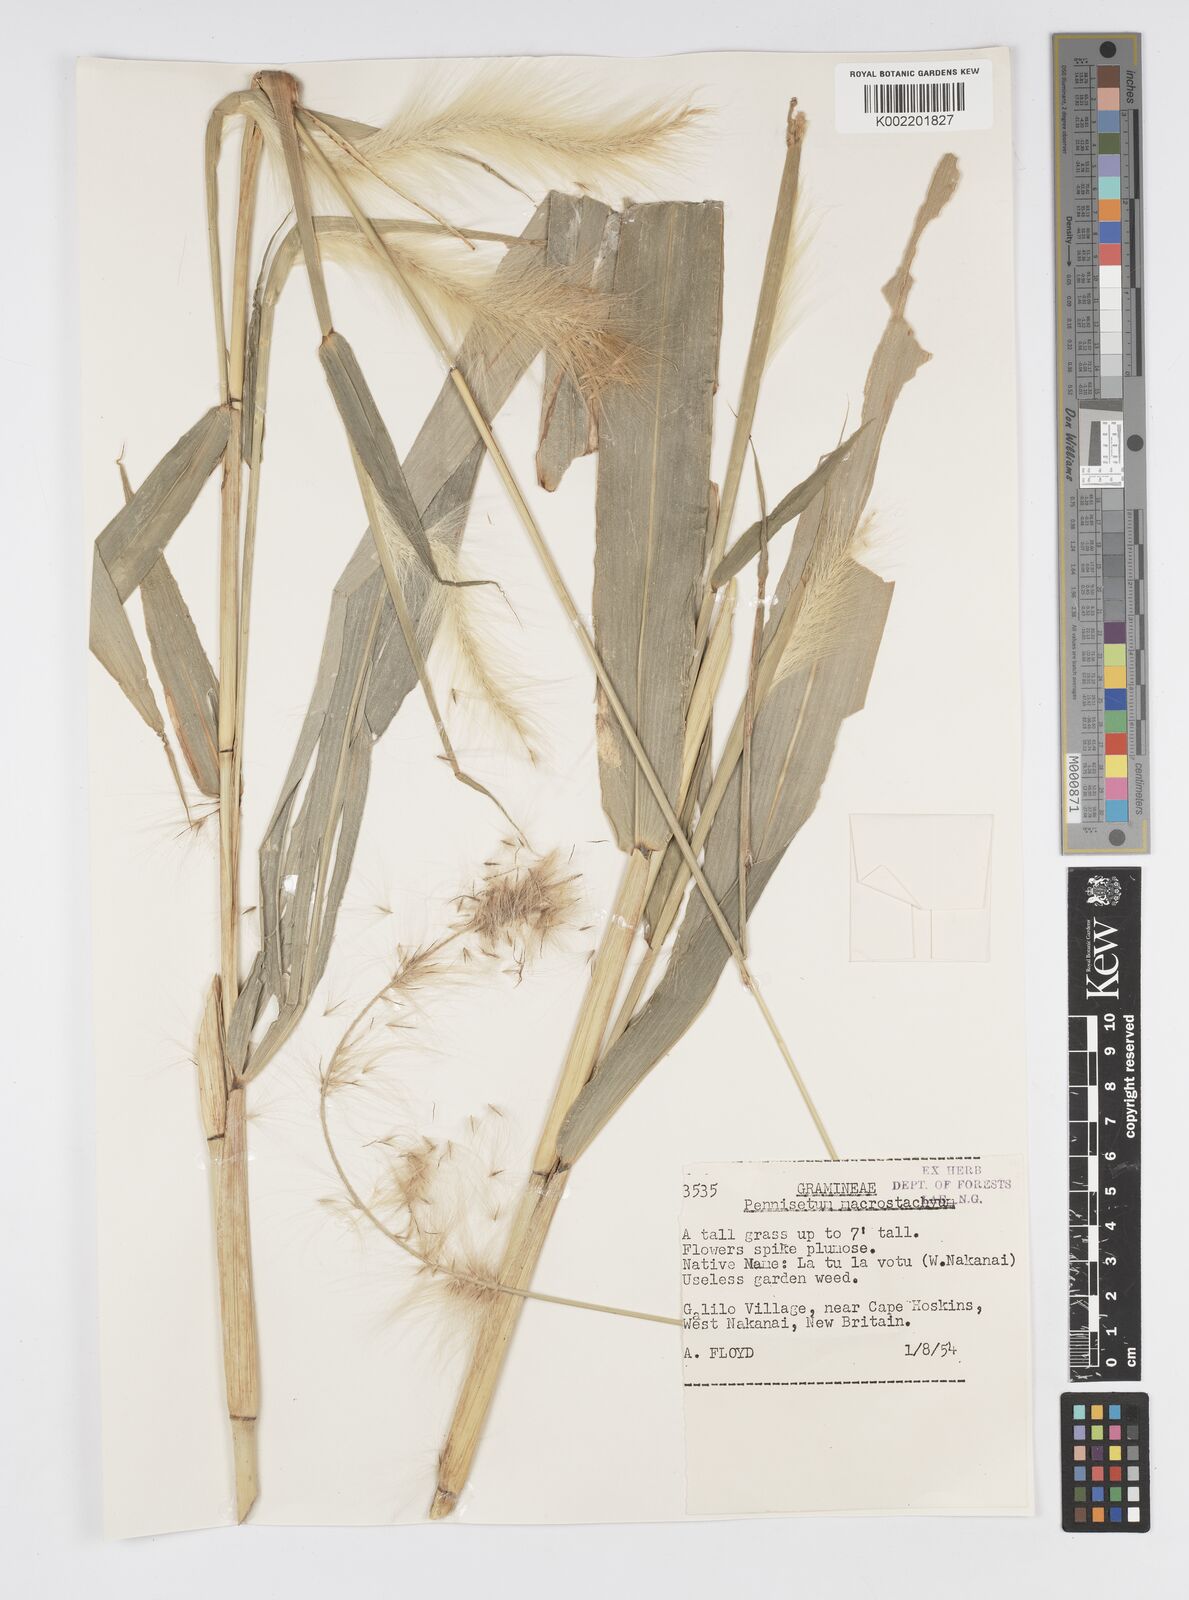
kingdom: Plantae
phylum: Tracheophyta
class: Liliopsida
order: Poales
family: Poaceae
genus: Cenchrus
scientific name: Cenchrus purpureus
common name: Elephant grass
